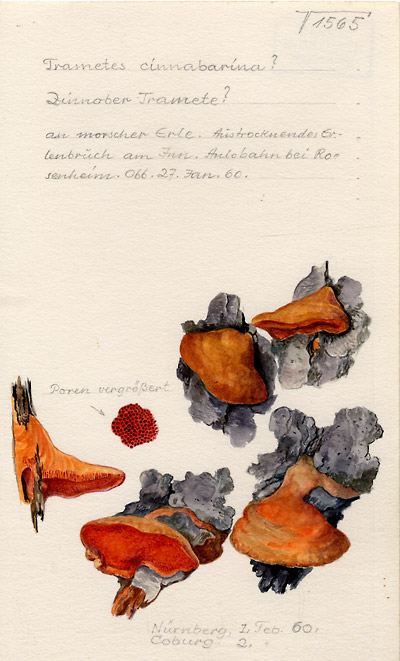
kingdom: Fungi
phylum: Basidiomycota
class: Agaricomycetes
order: Polyporales
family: Polyporaceae
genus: Trametes
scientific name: Trametes cinnabarina
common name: Northern cinnabar polypore
